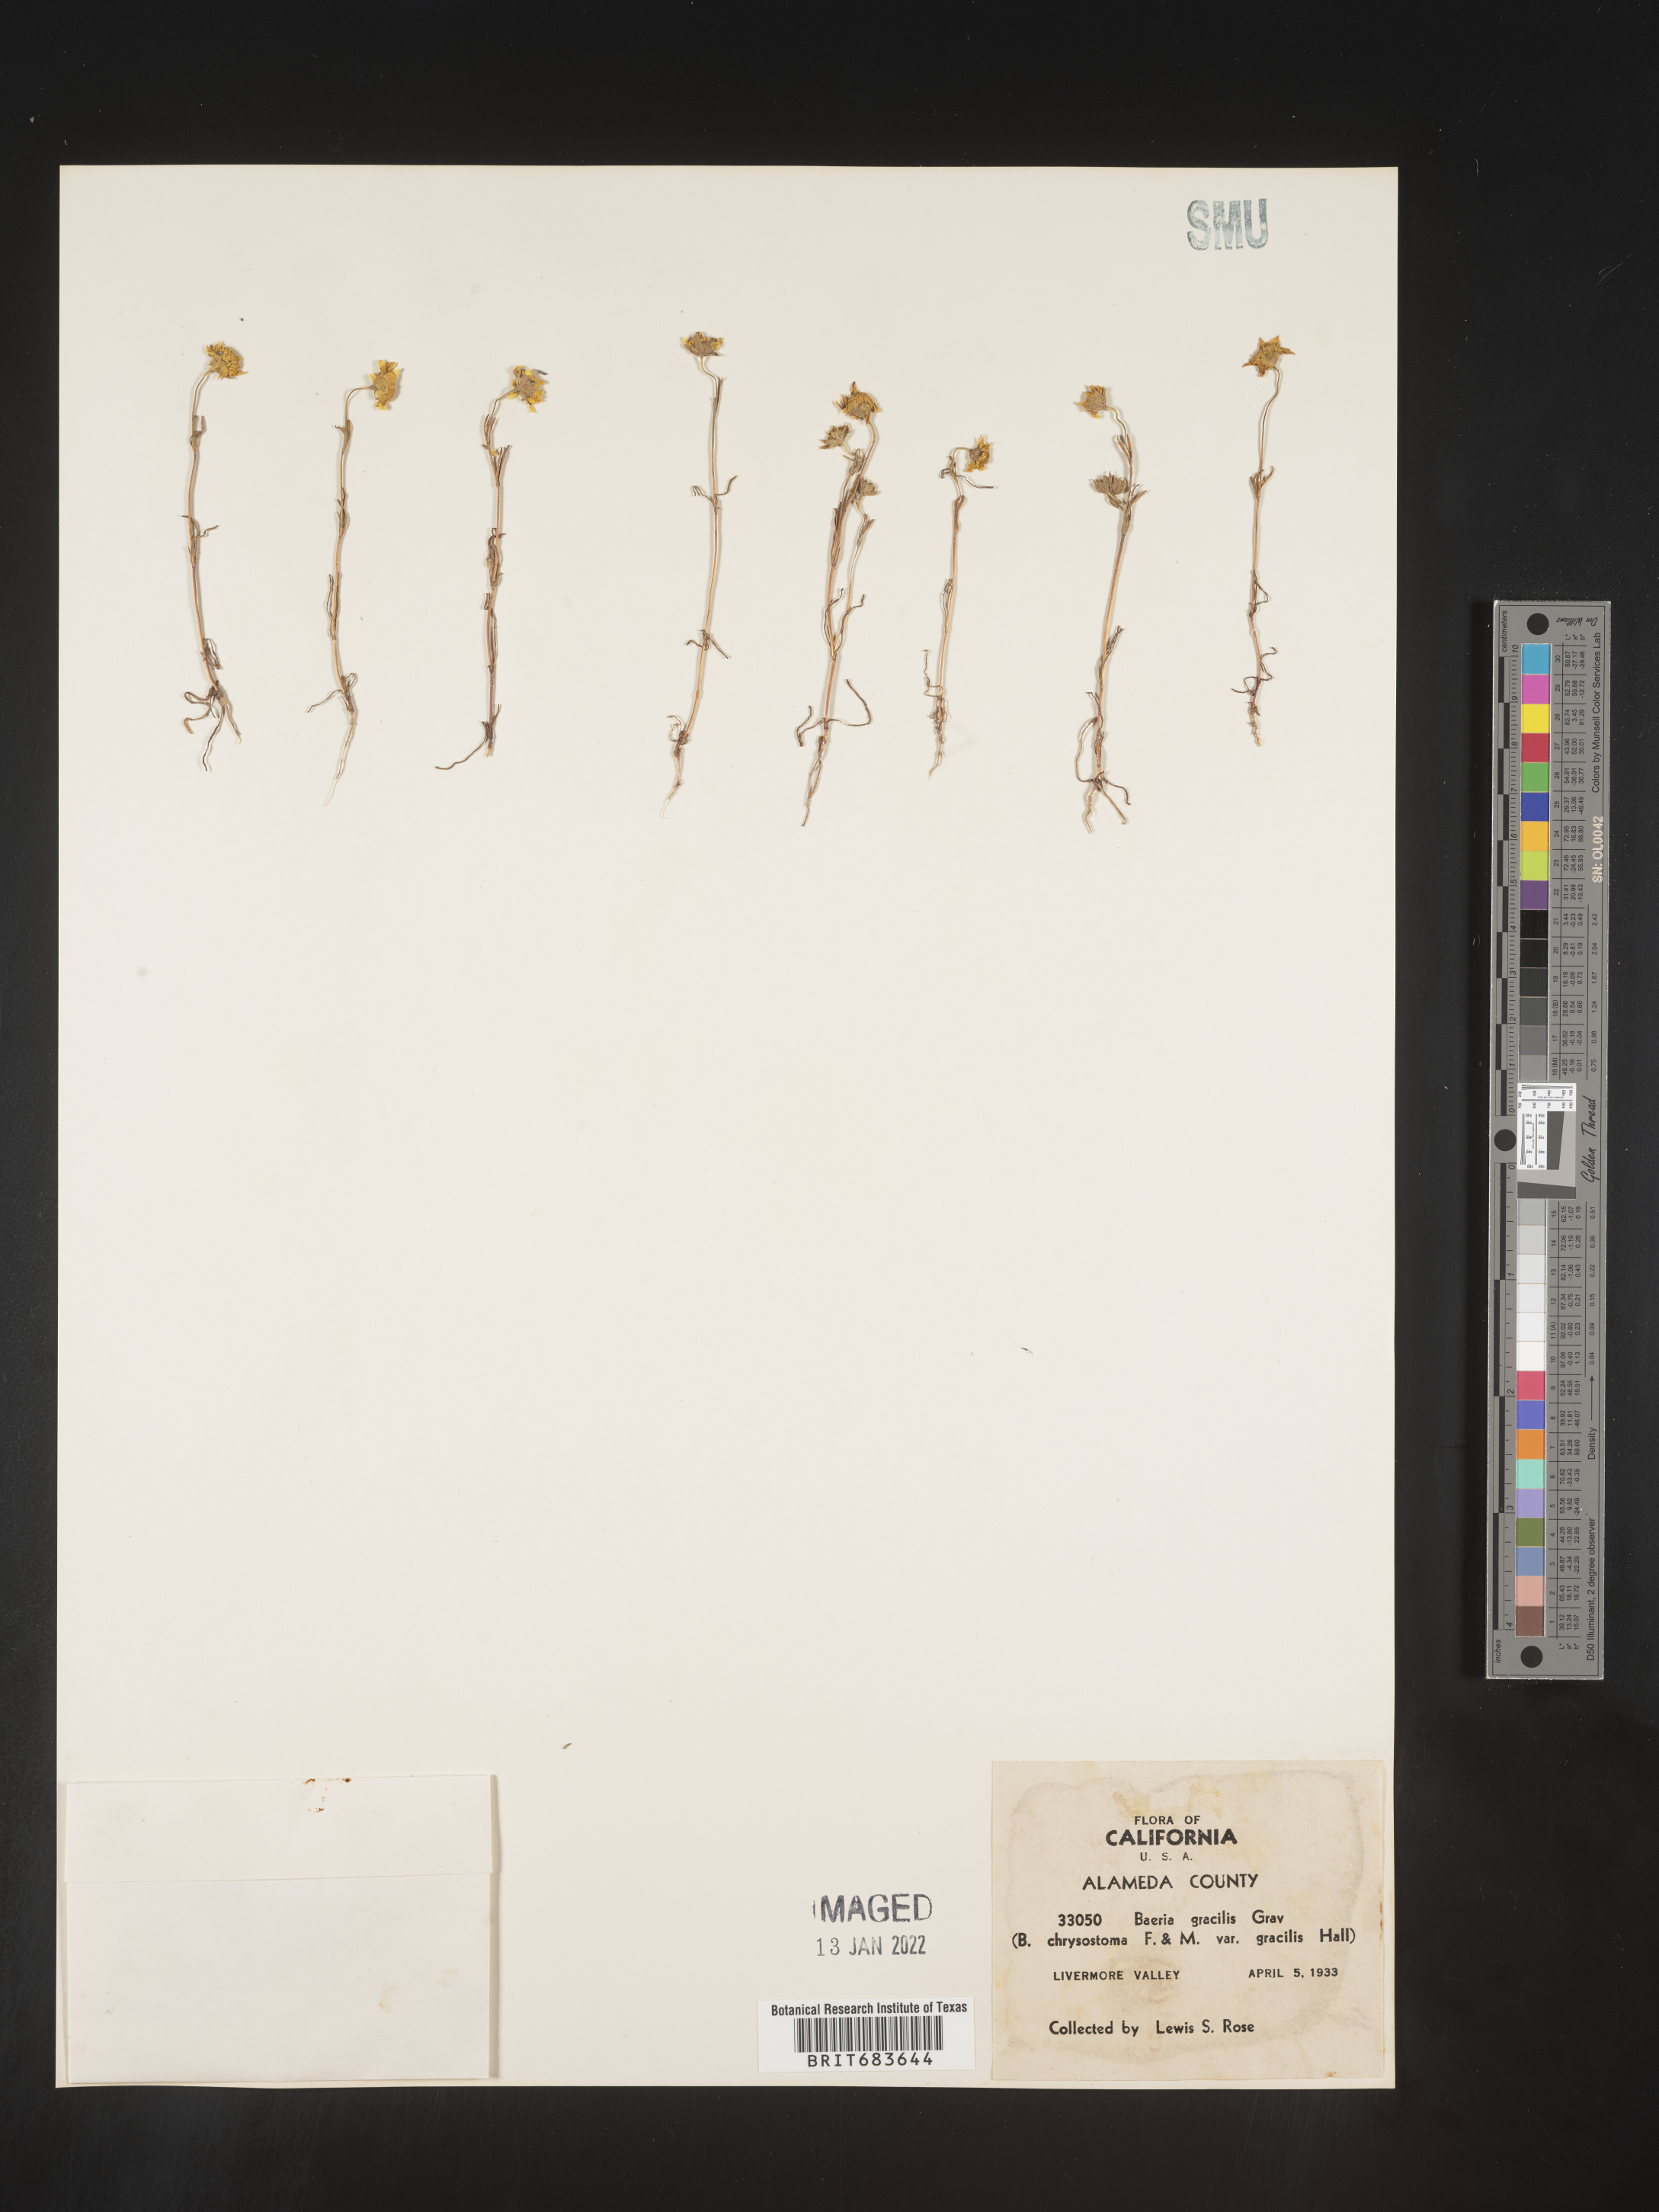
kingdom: Plantae
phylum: Tracheophyta
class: Magnoliopsida
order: Asterales
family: Asteraceae
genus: Lasthenia
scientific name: Lasthenia
